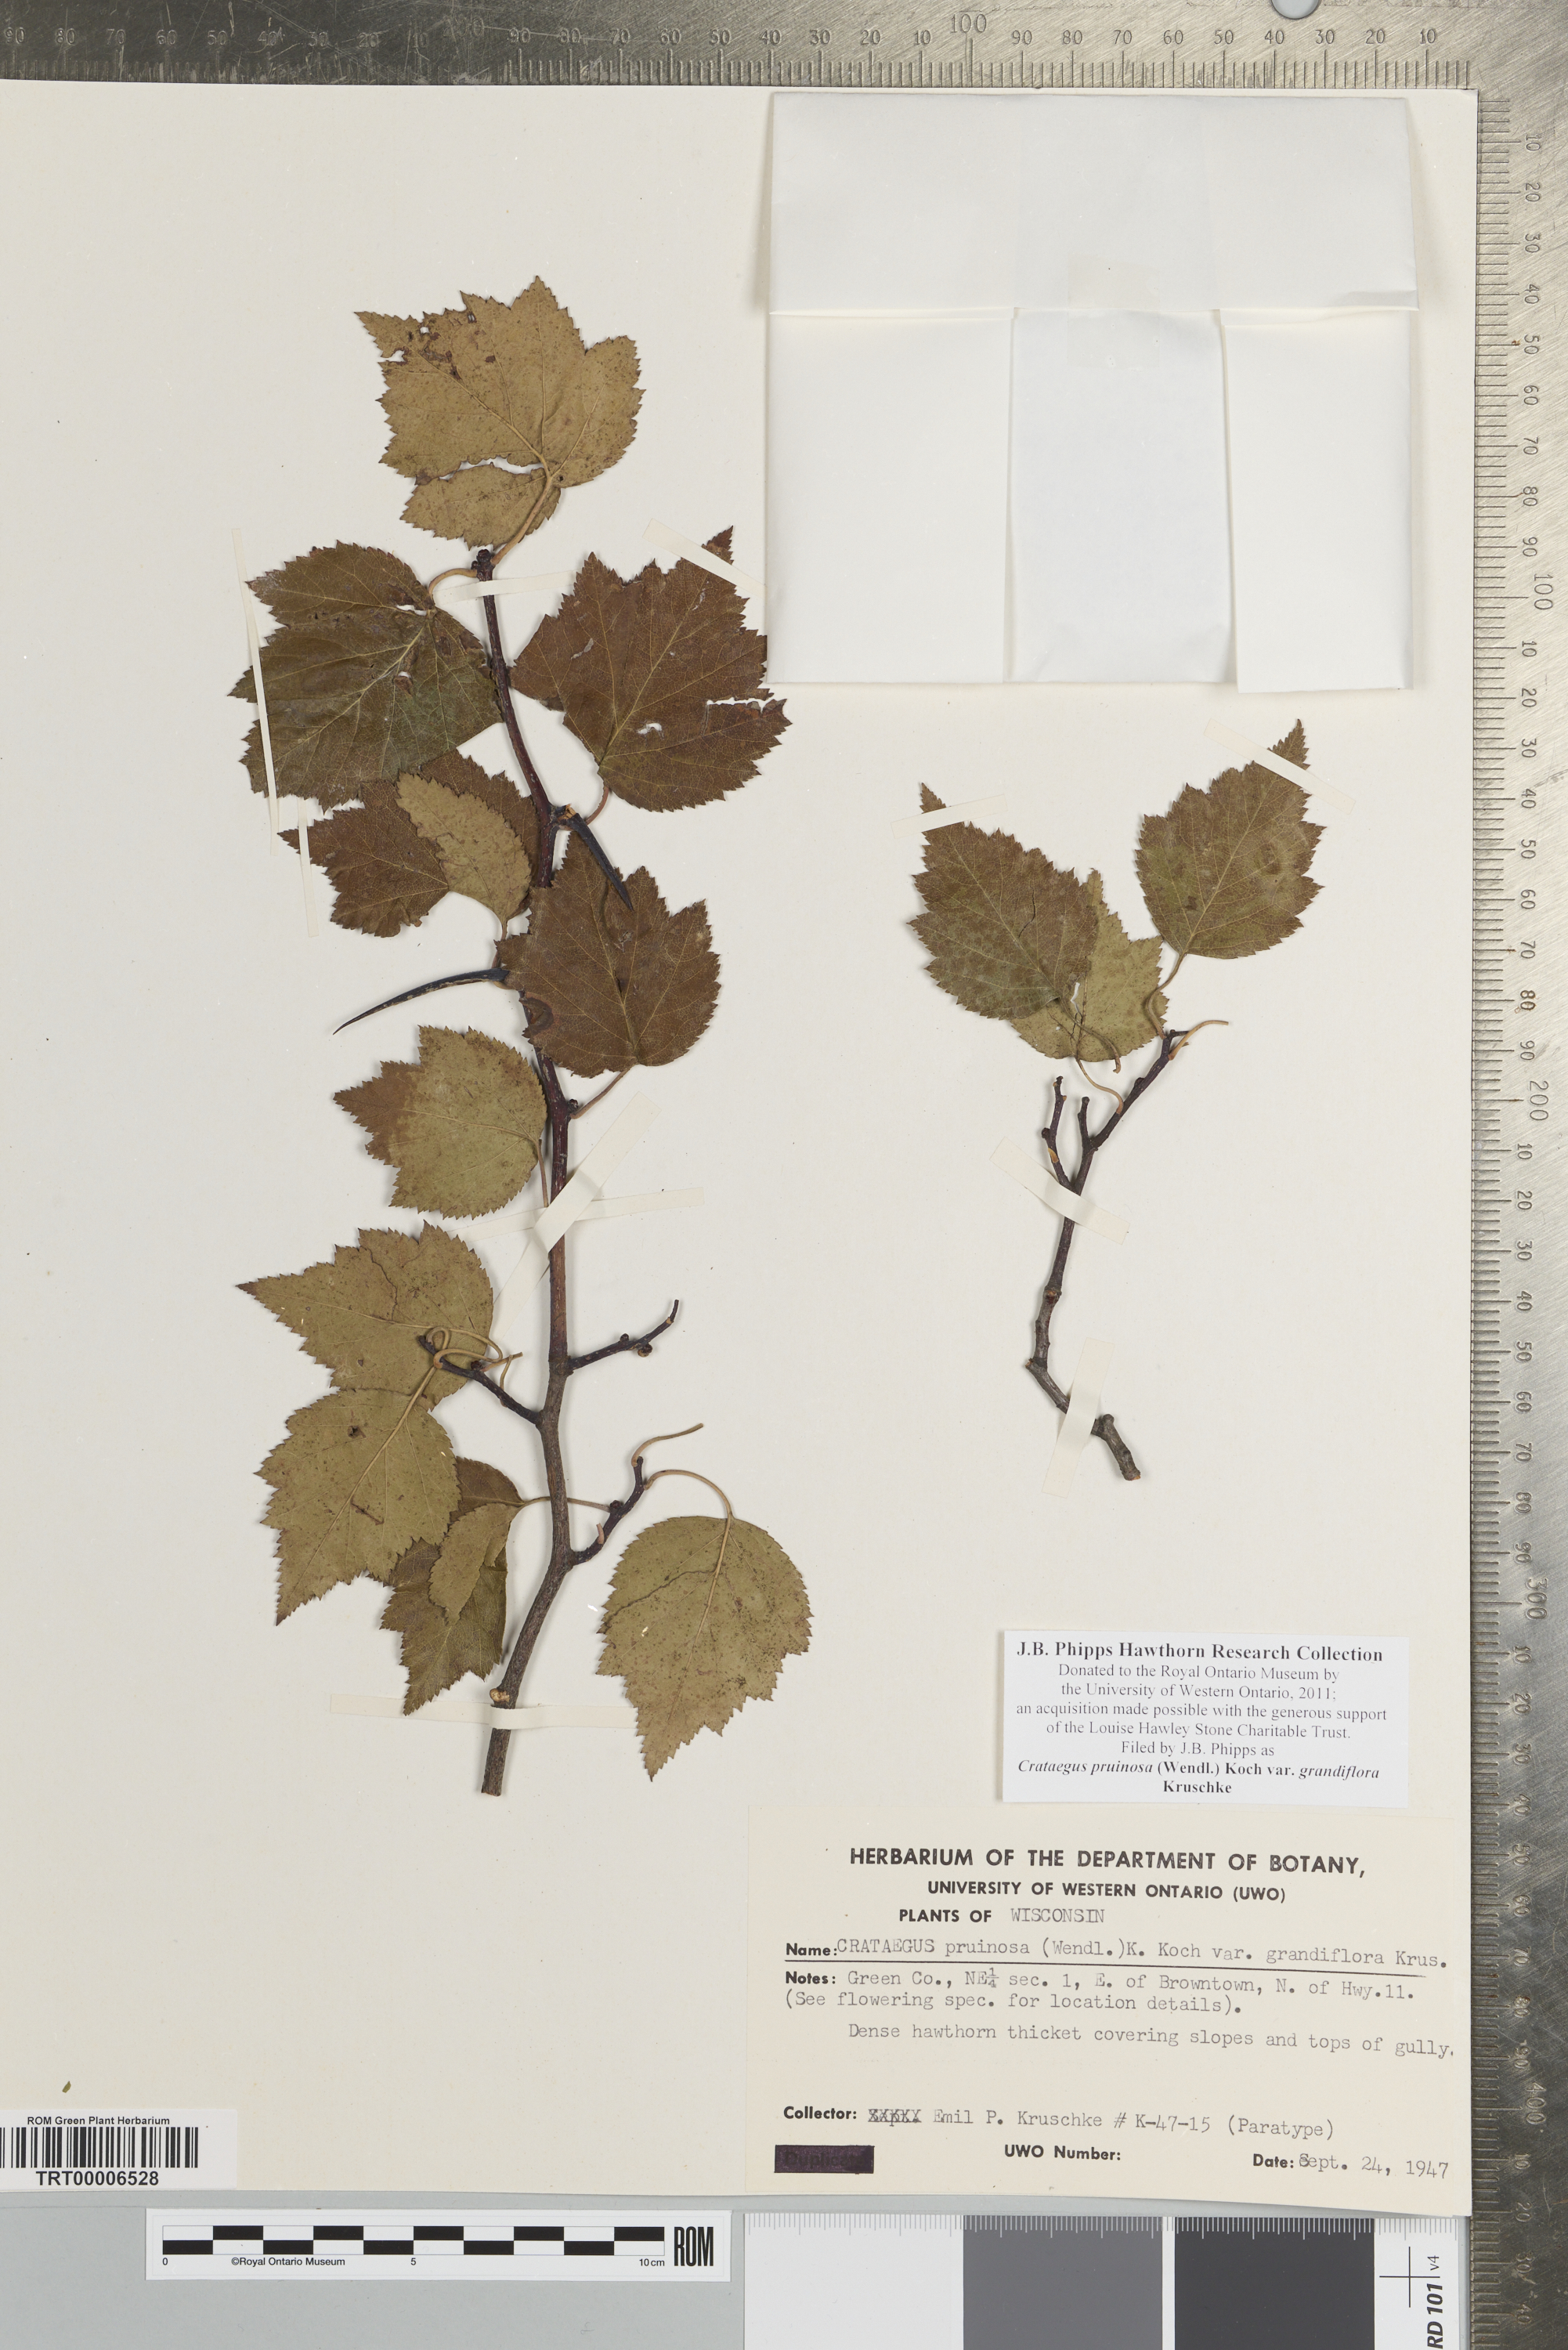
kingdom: Plantae
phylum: Tracheophyta
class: Magnoliopsida
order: Rosales
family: Rosaceae
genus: Crataegus
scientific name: Crataegus pruinosa
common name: Waxy-fruit hawthorn
